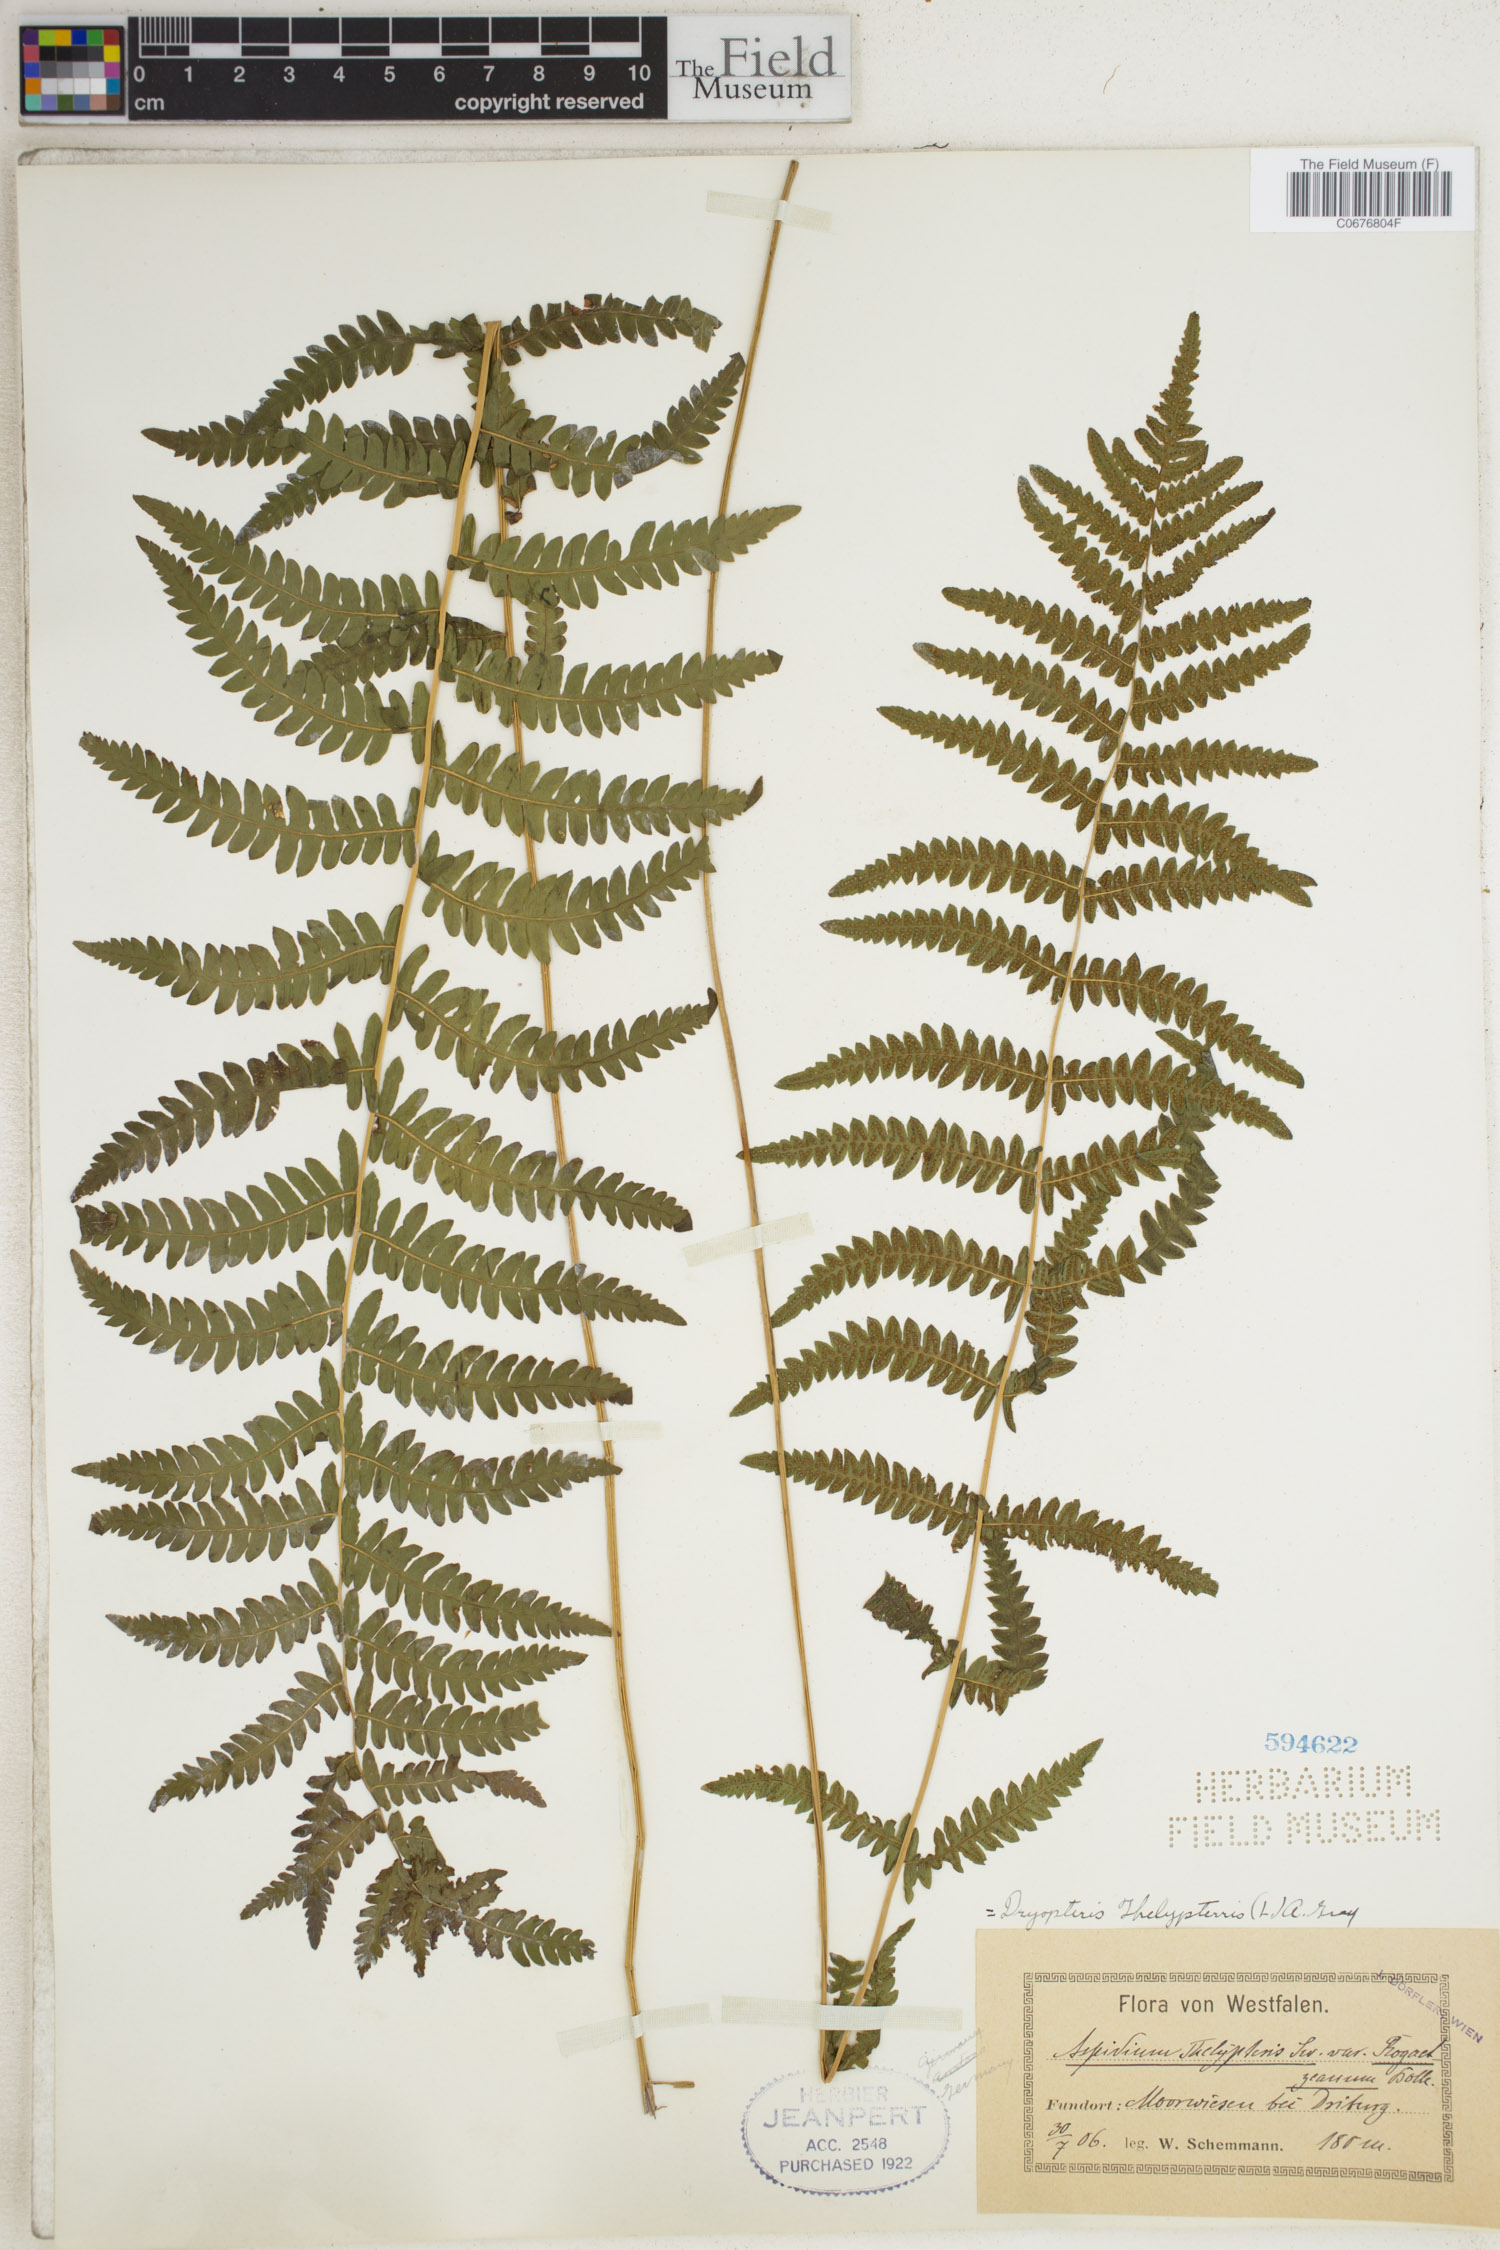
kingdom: Plantae
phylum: Tracheophyta
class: Polypodiopsida
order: Polypodiales
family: Thelypteridaceae
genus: Thelypteris
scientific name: Thelypteris palustris
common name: Marsh fern
